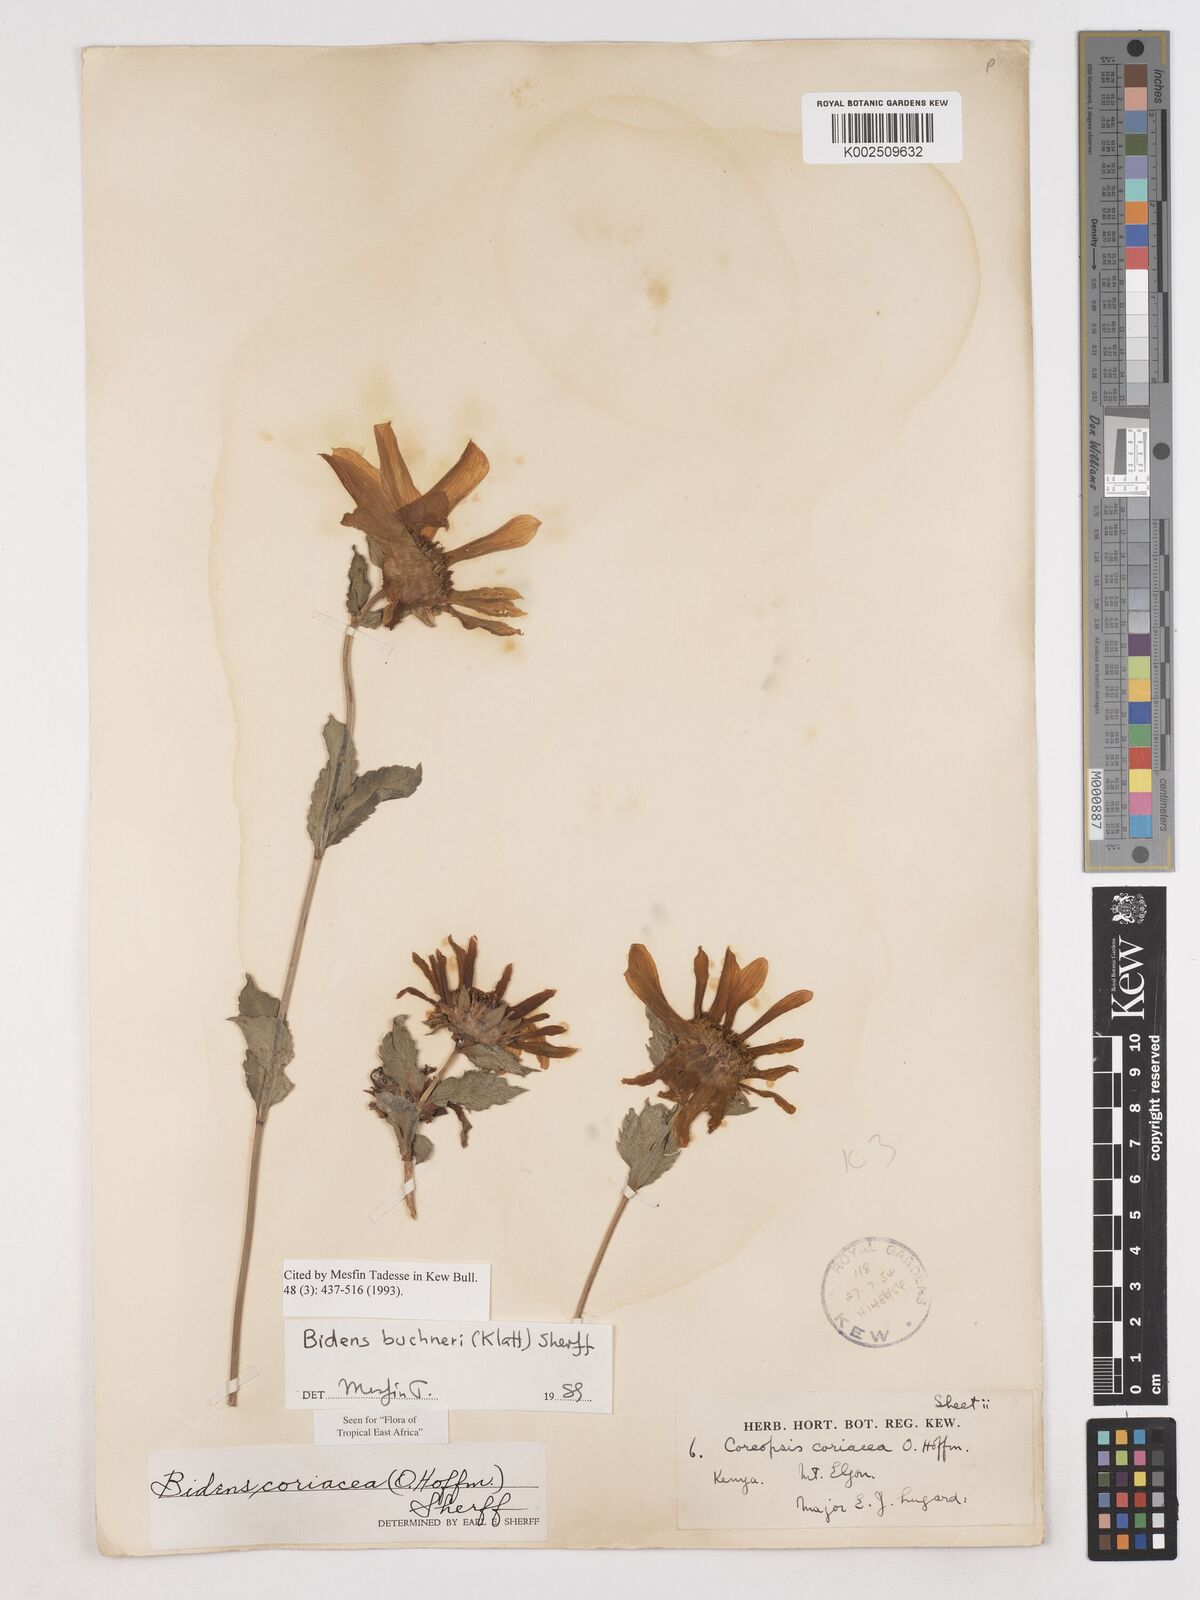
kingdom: Plantae
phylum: Tracheophyta
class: Magnoliopsida
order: Asterales
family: Asteraceae
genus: Bidens
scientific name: Bidens buchneri
